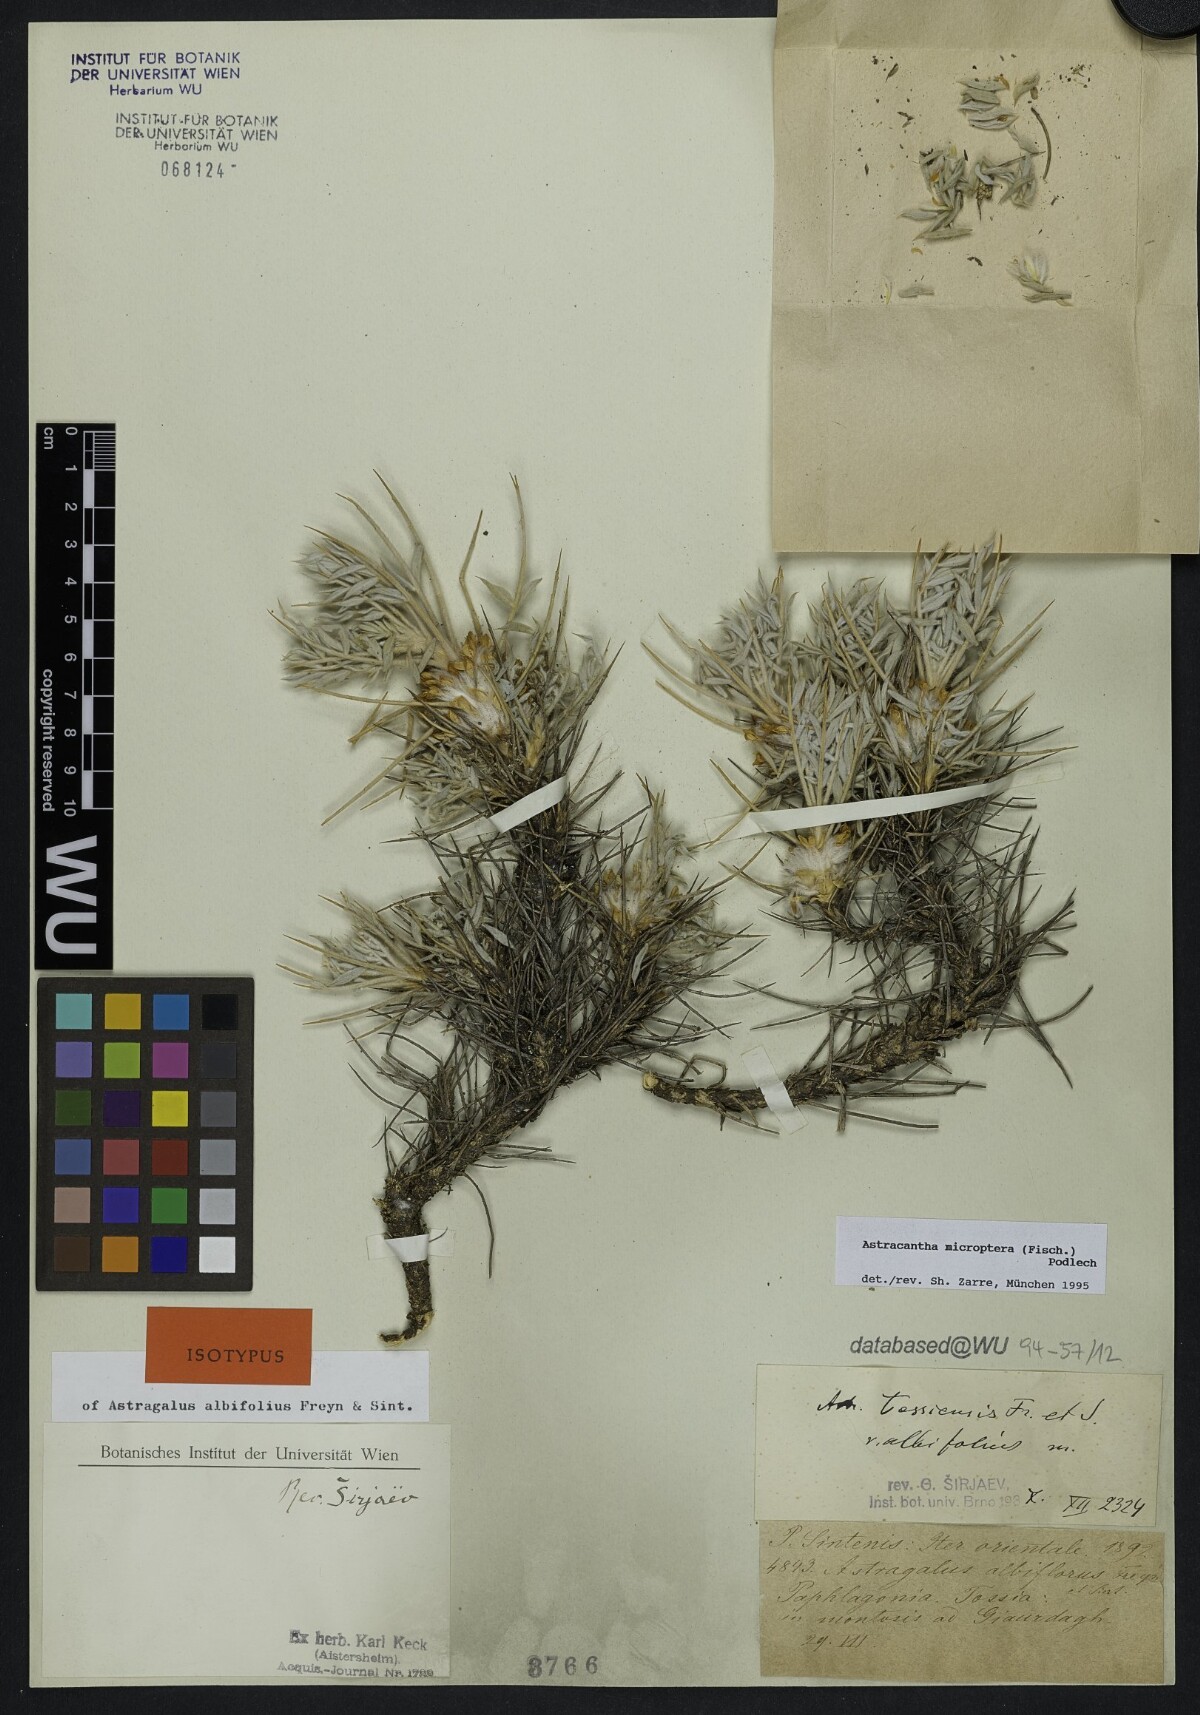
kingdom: Plantae
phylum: Tracheophyta
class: Magnoliopsida
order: Fabales
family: Fabaceae
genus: Astragalus
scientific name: Astragalus micropterus
